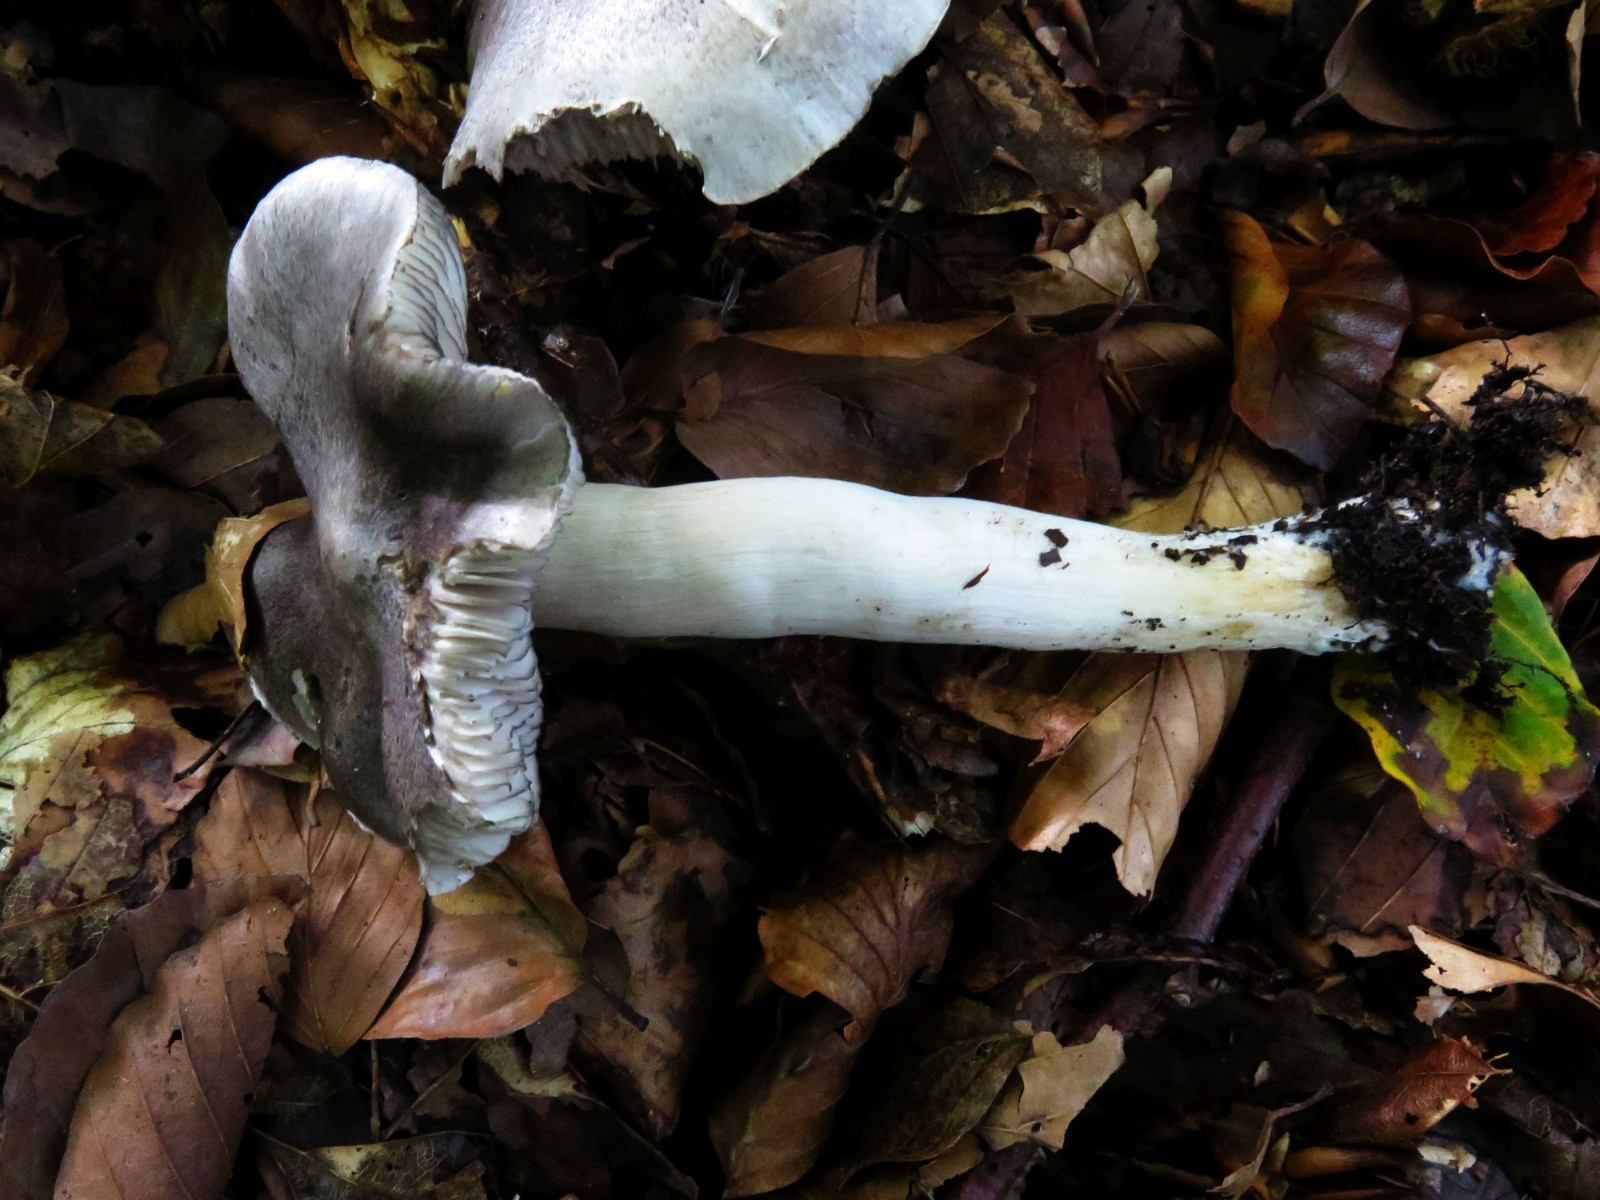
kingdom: Fungi
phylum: Basidiomycota
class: Agaricomycetes
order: Agaricales
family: Tricholomataceae
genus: Tricholoma
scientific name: Tricholoma sciodes
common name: stribet ridderhat
